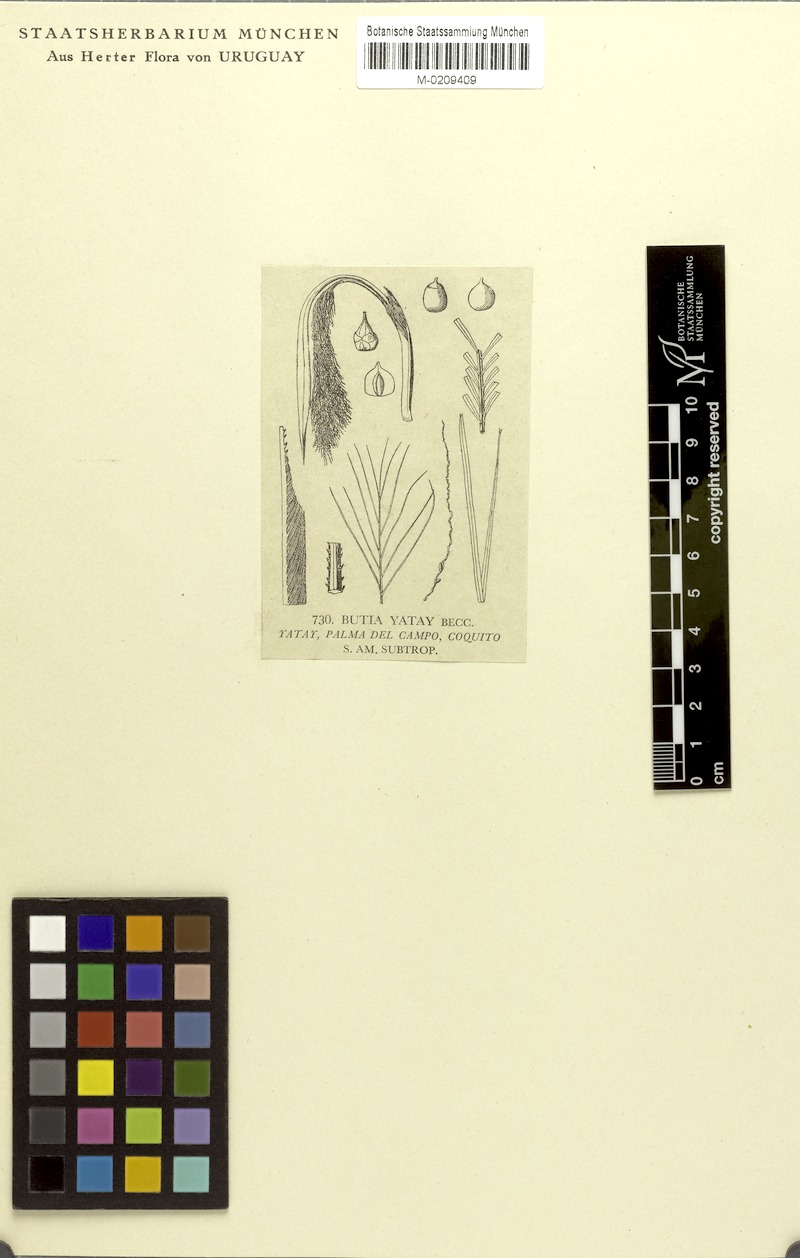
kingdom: Plantae
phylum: Tracheophyta
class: Liliopsida
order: Arecales
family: Arecaceae
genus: Butia
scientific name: Butia yatay
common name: Yatay palm
